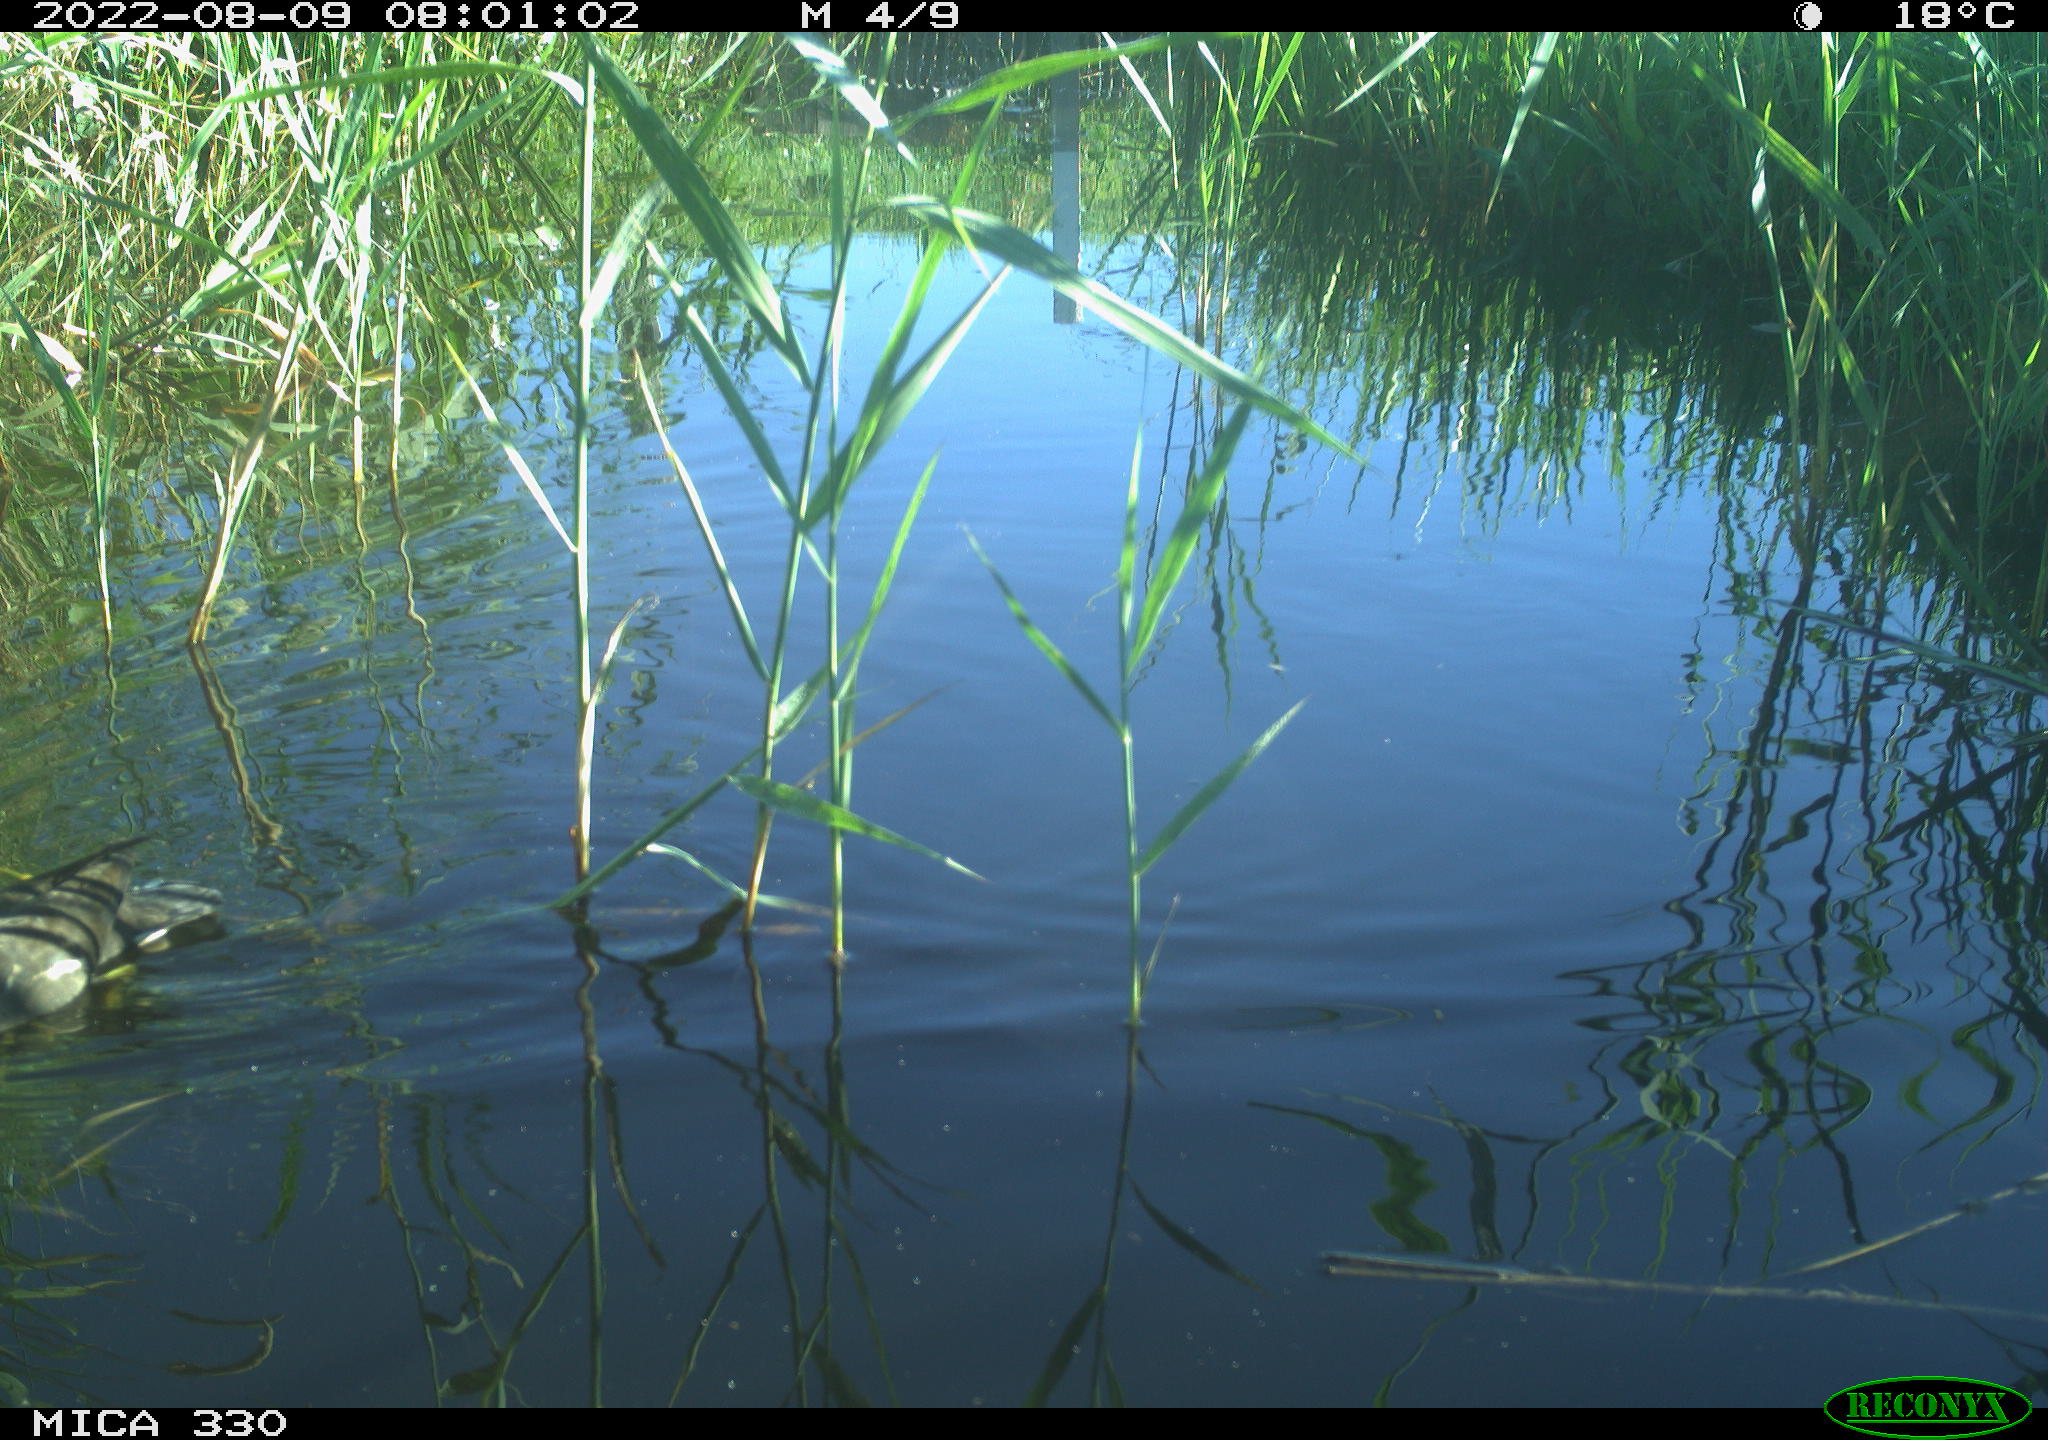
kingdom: Animalia
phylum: Chordata
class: Aves
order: Gruiformes
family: Rallidae
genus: Gallinula
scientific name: Gallinula chloropus
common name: Common moorhen
